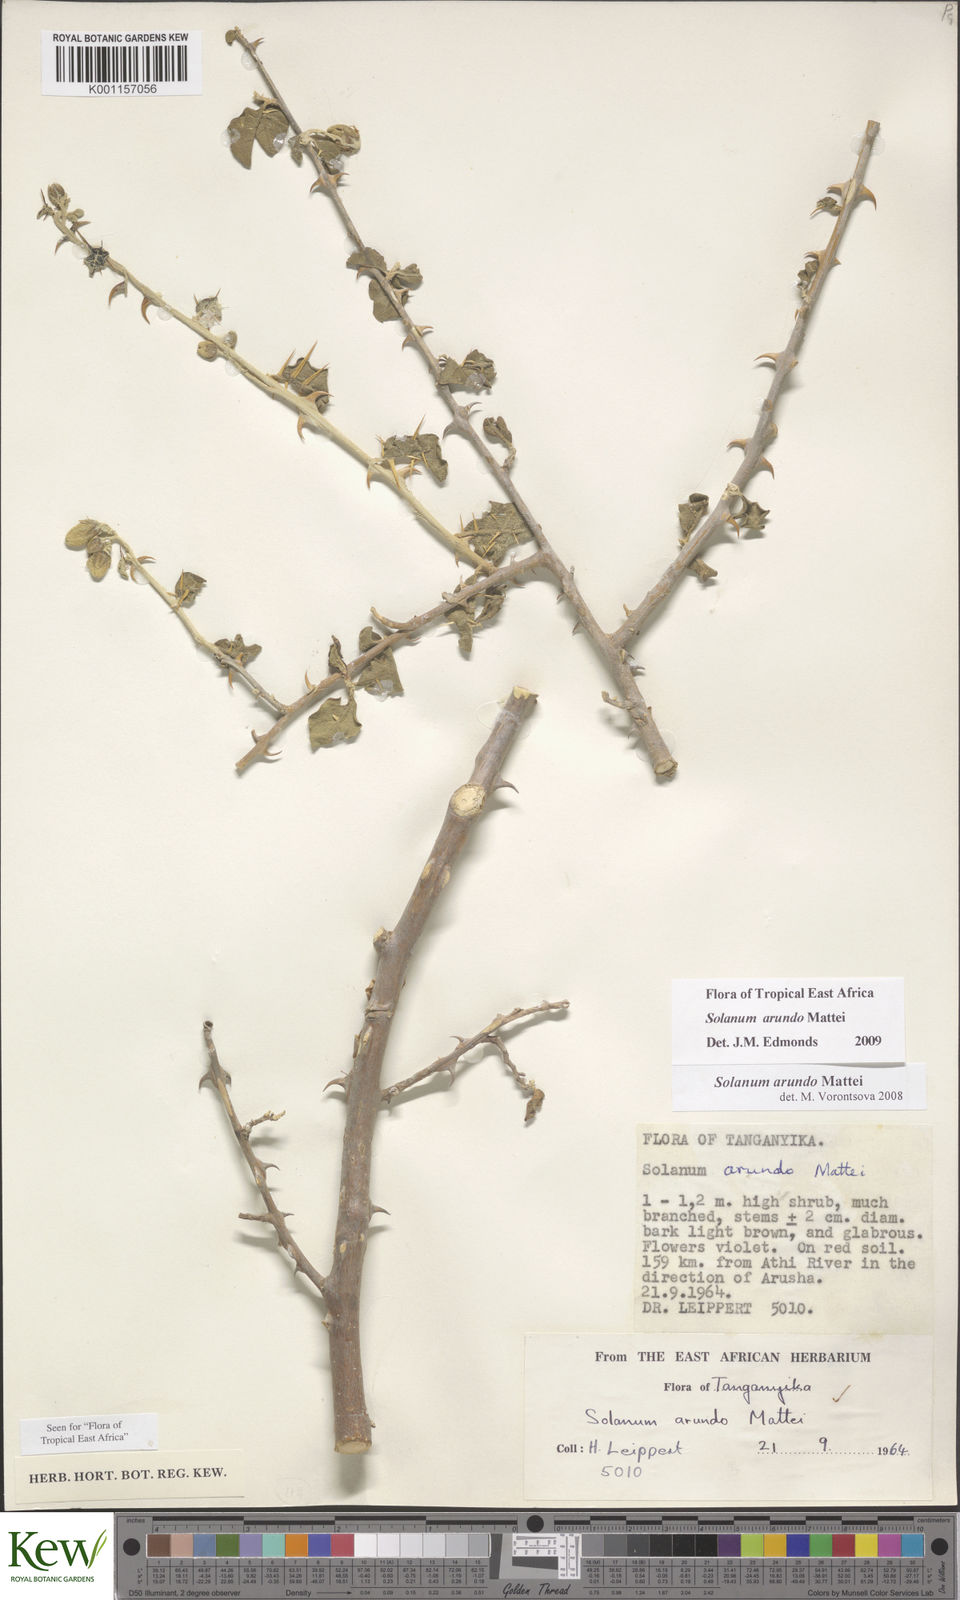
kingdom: Plantae
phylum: Tracheophyta
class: Magnoliopsida
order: Solanales
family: Solanaceae
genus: Solanum
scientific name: Solanum arundo
